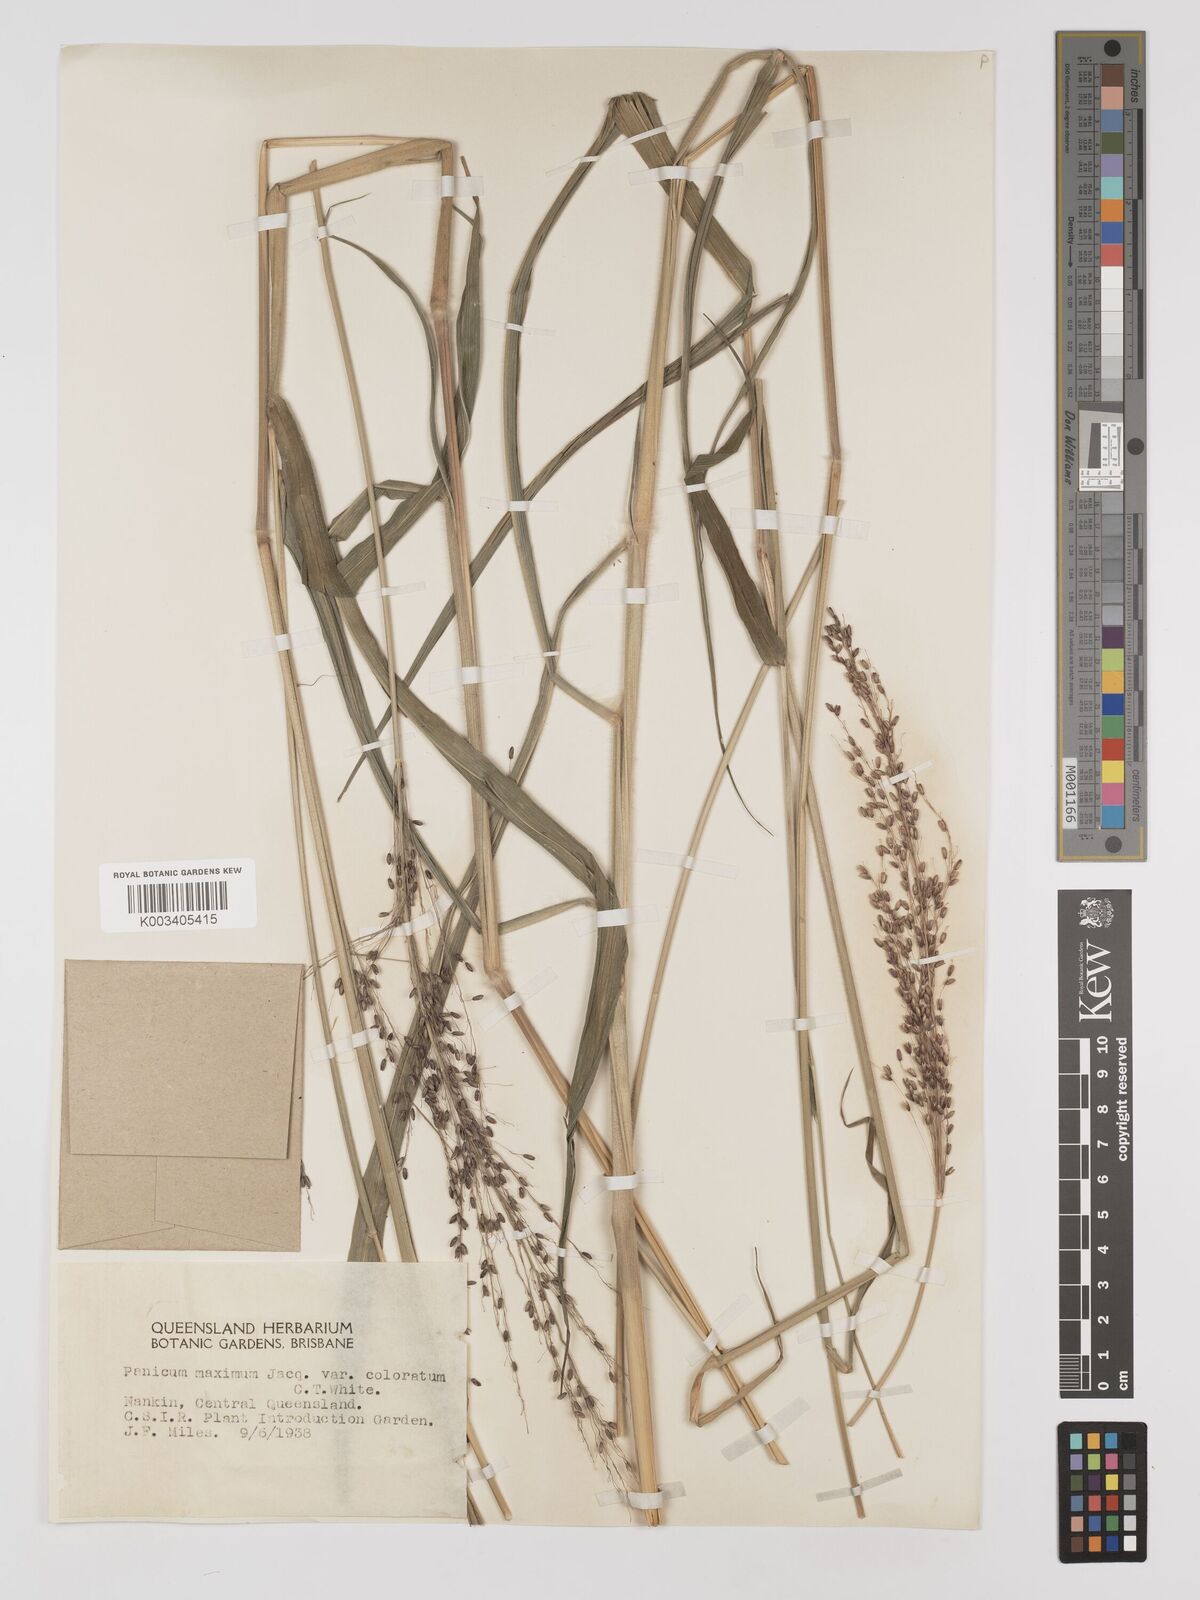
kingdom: Plantae
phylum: Tracheophyta
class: Liliopsida
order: Poales
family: Poaceae
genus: Megathyrsus
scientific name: Megathyrsus maximus
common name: Guineagrass
